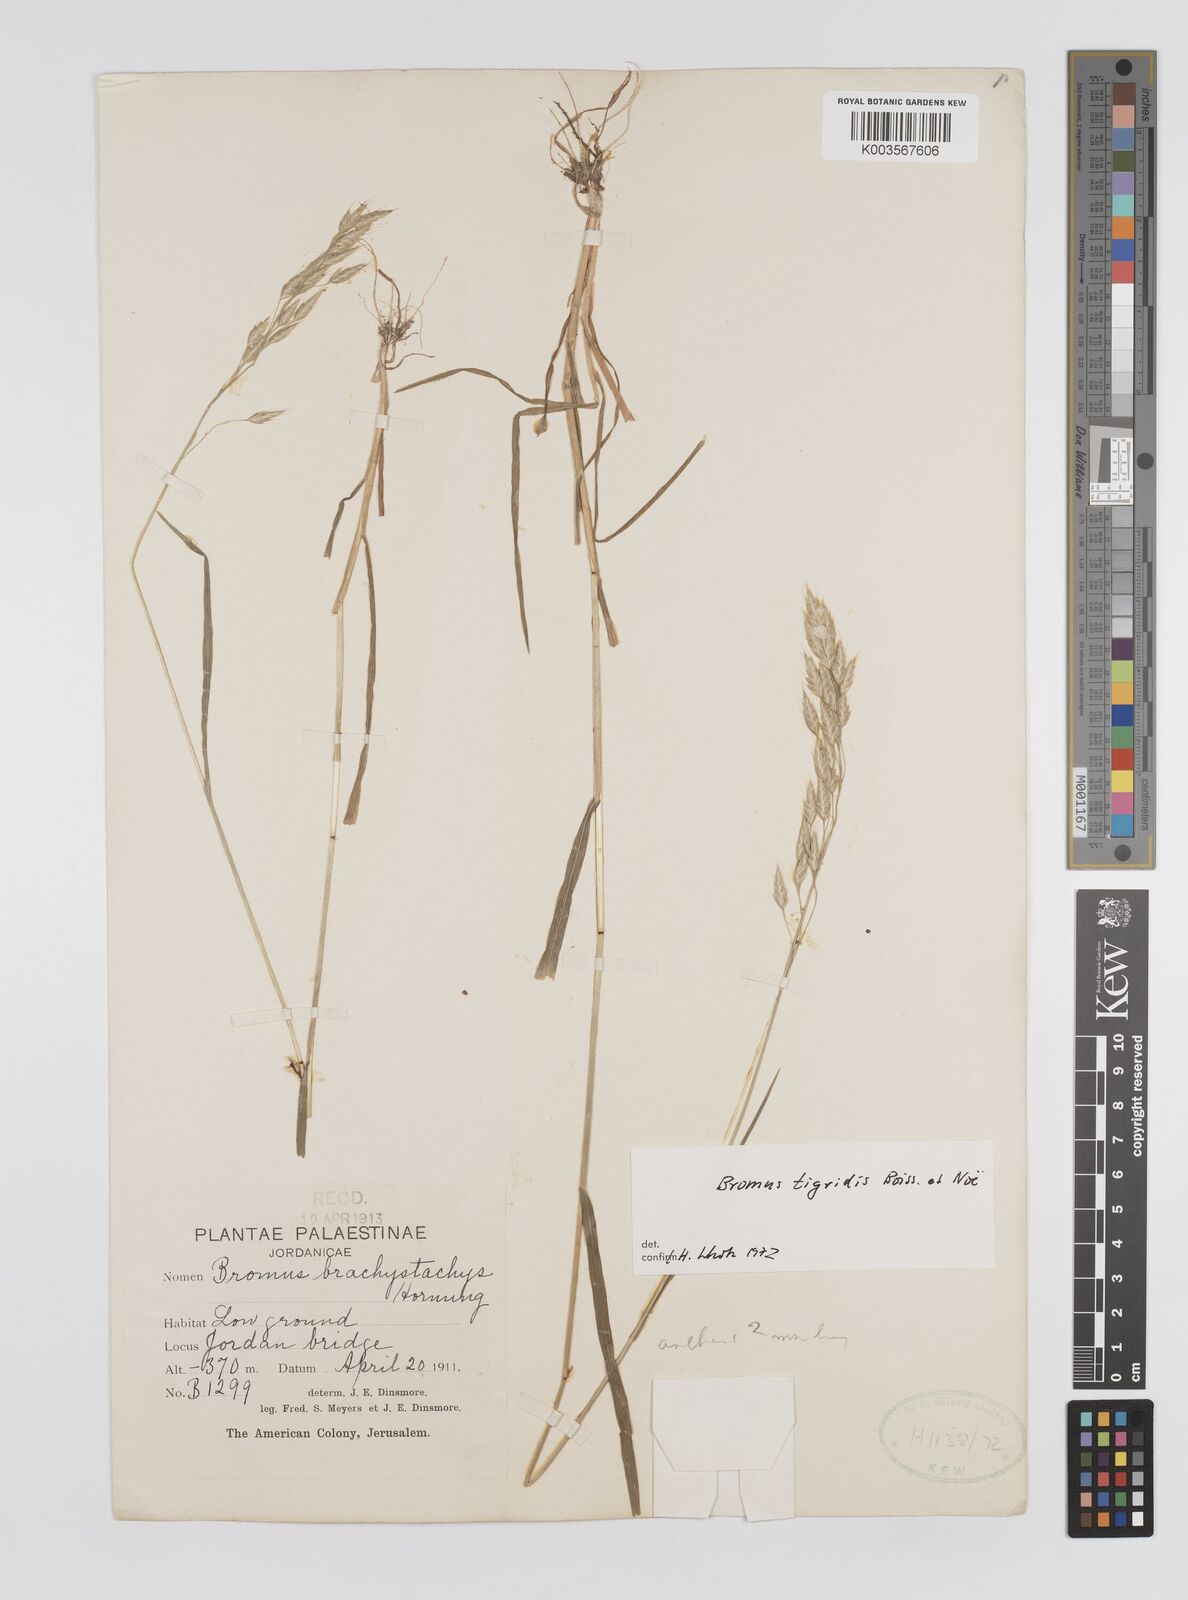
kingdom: Plantae
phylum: Tracheophyta
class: Liliopsida
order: Poales
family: Poaceae
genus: Bromus
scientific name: Bromus brachystachys
